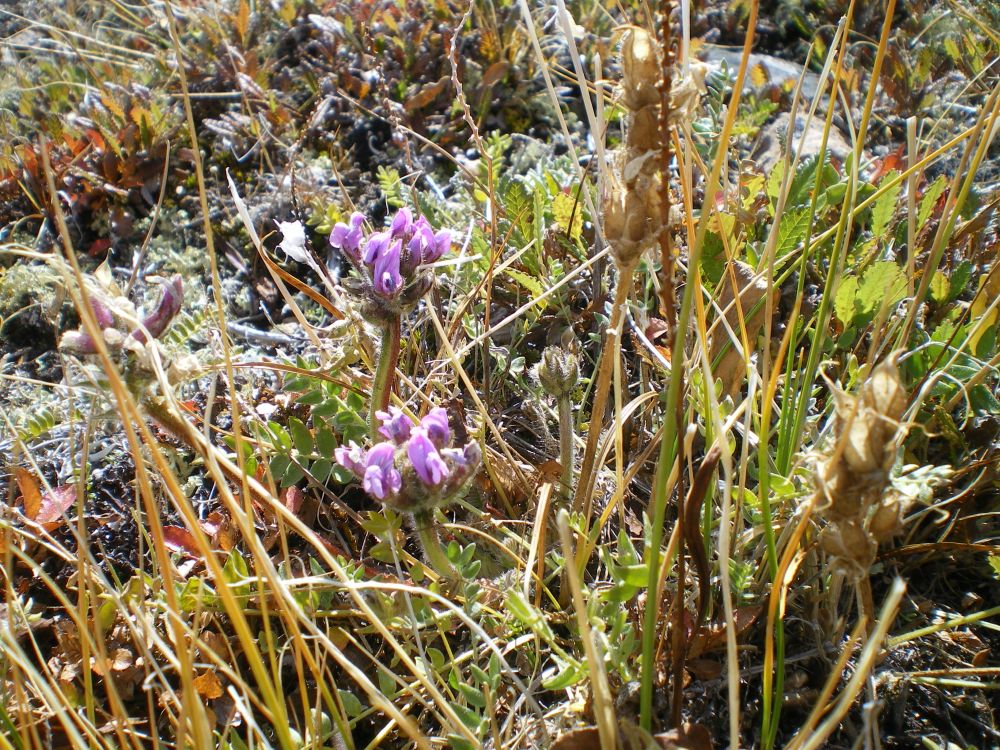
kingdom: Plantae
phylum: Tracheophyta
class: Magnoliopsida
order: Fabales
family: Fabaceae
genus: Oxytropis
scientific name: Oxytropis alpina
